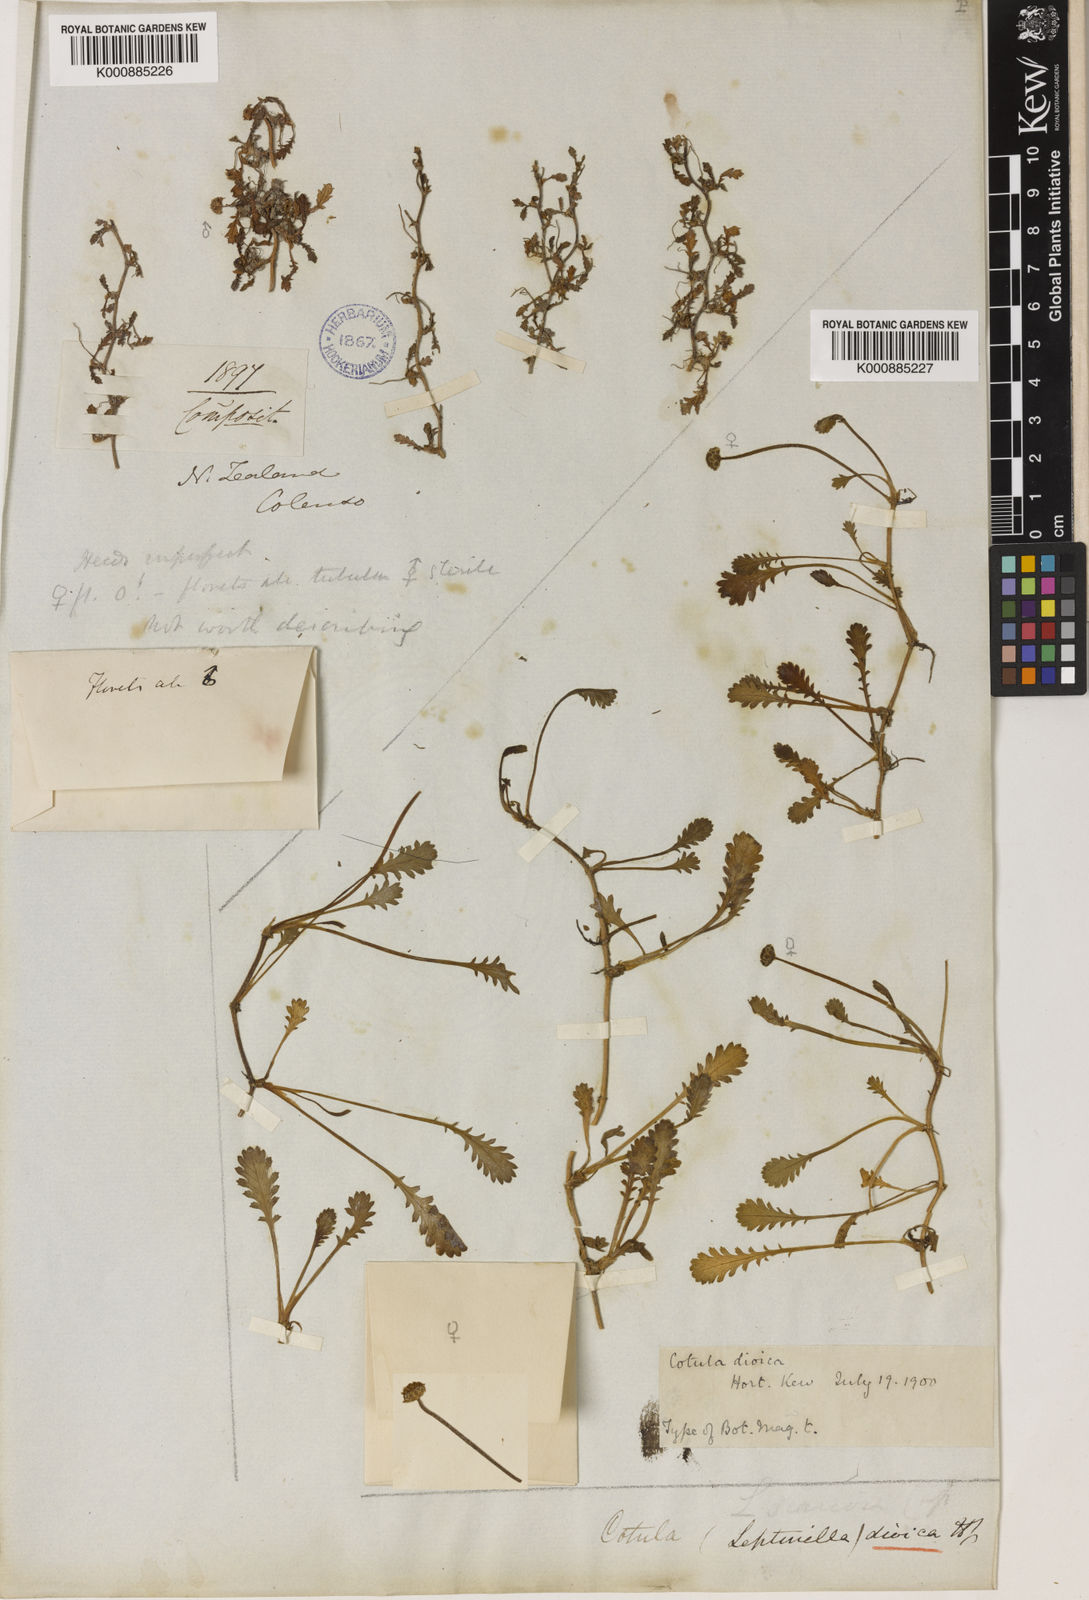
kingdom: Plantae
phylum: Tracheophyta
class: Magnoliopsida
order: Asterales
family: Asteraceae
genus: Leptinella
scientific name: Leptinella dioica
